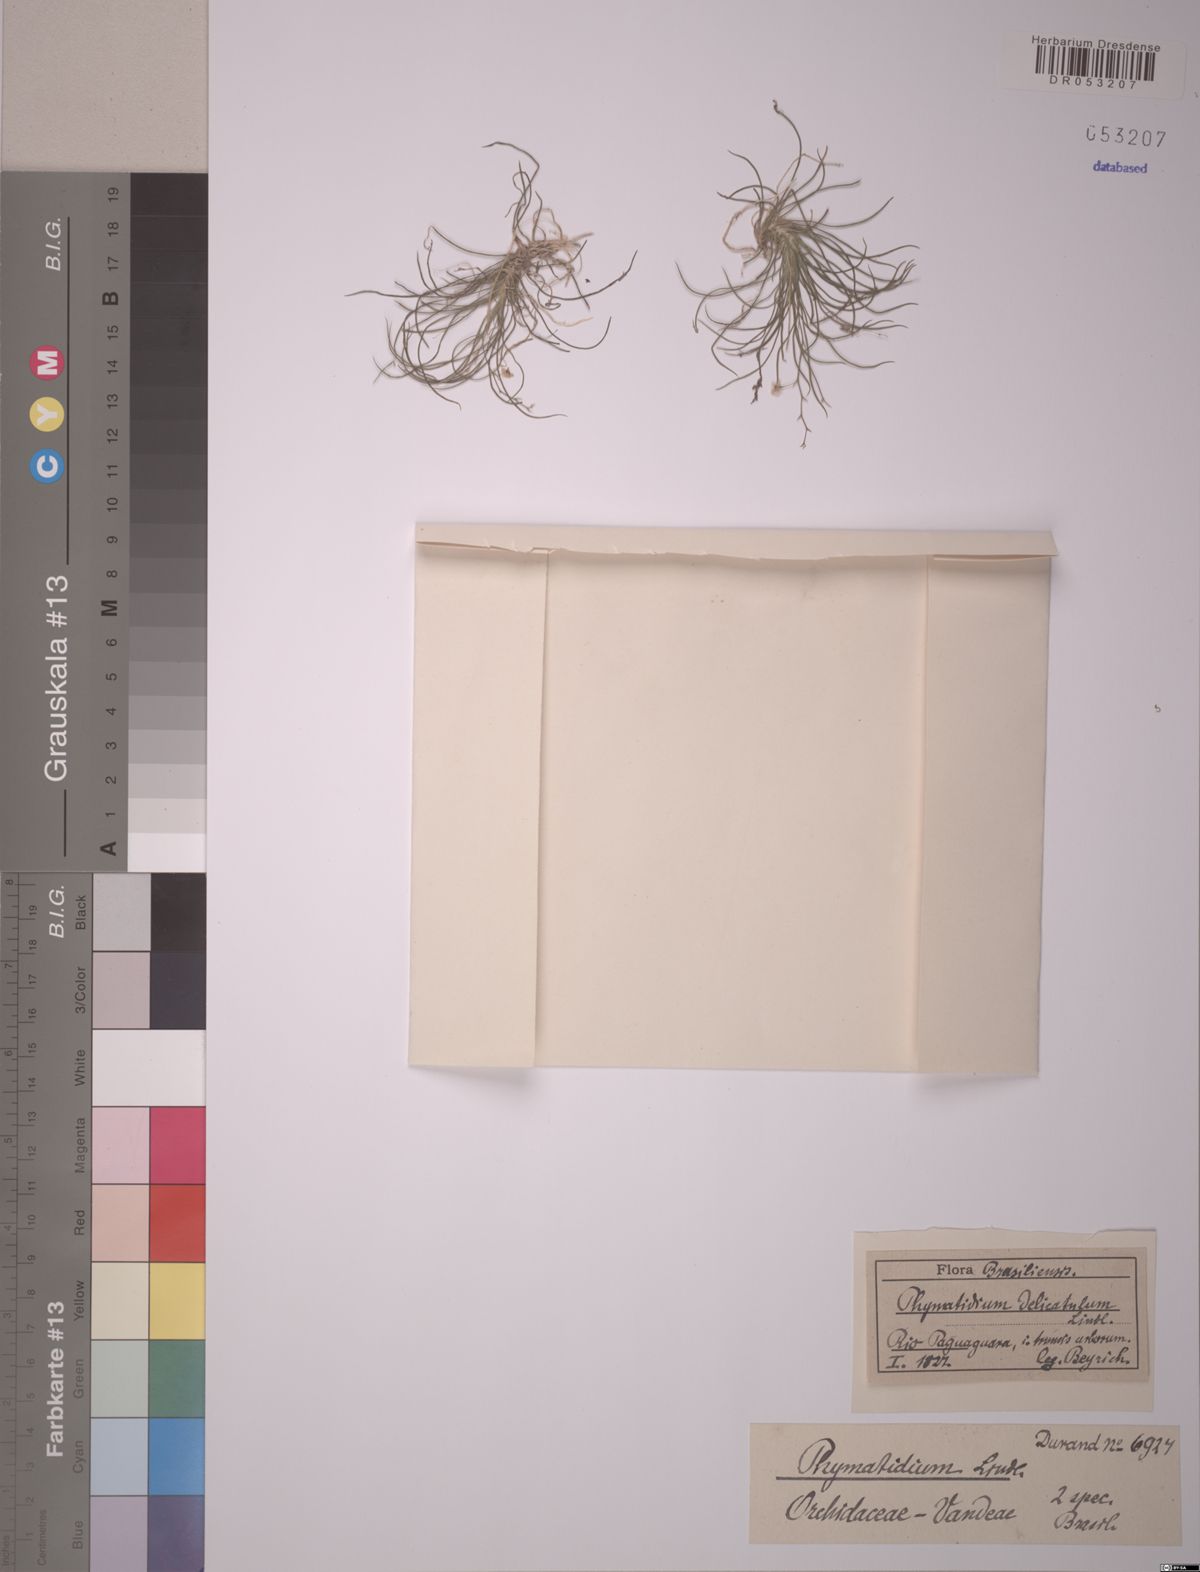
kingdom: Plantae
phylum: Tracheophyta
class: Liliopsida
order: Asparagales
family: Orchidaceae
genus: Phymatidium
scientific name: Phymatidium delicatulum
